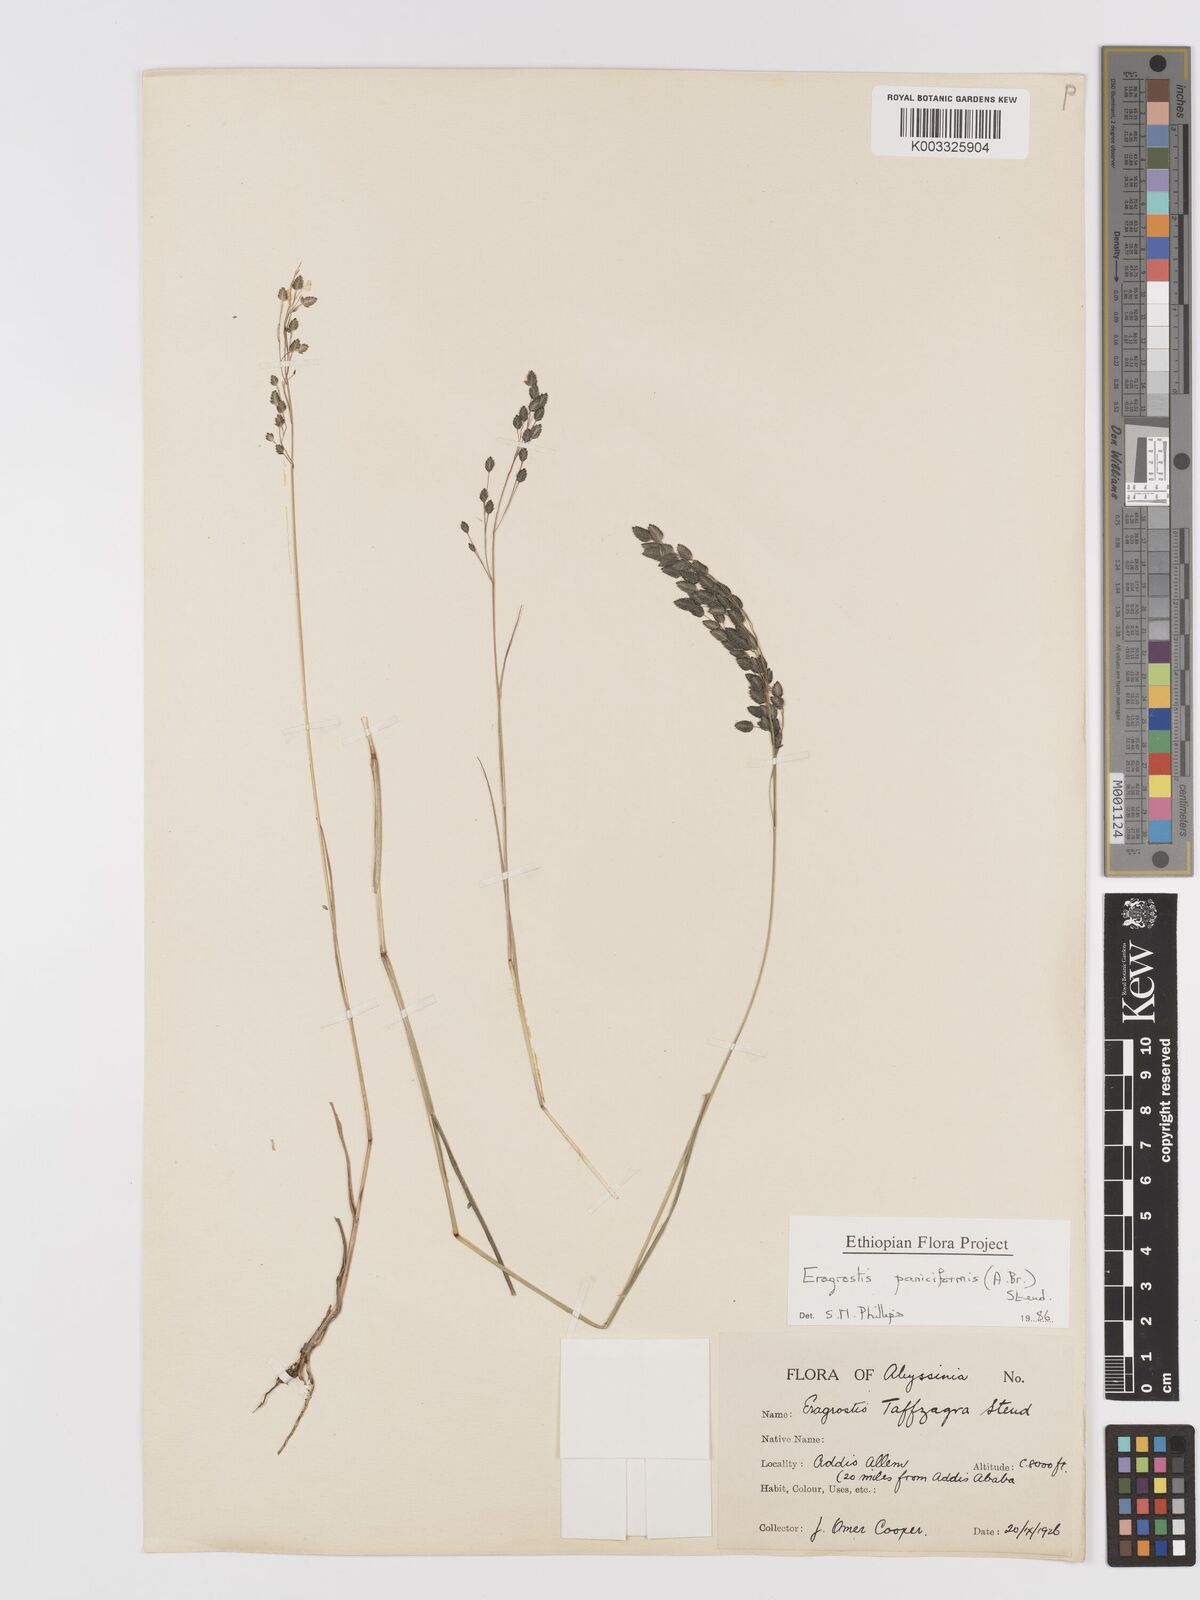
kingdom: Plantae
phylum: Tracheophyta
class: Liliopsida
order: Poales
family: Poaceae
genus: Eragrostis
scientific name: Eragrostis paniciformis
